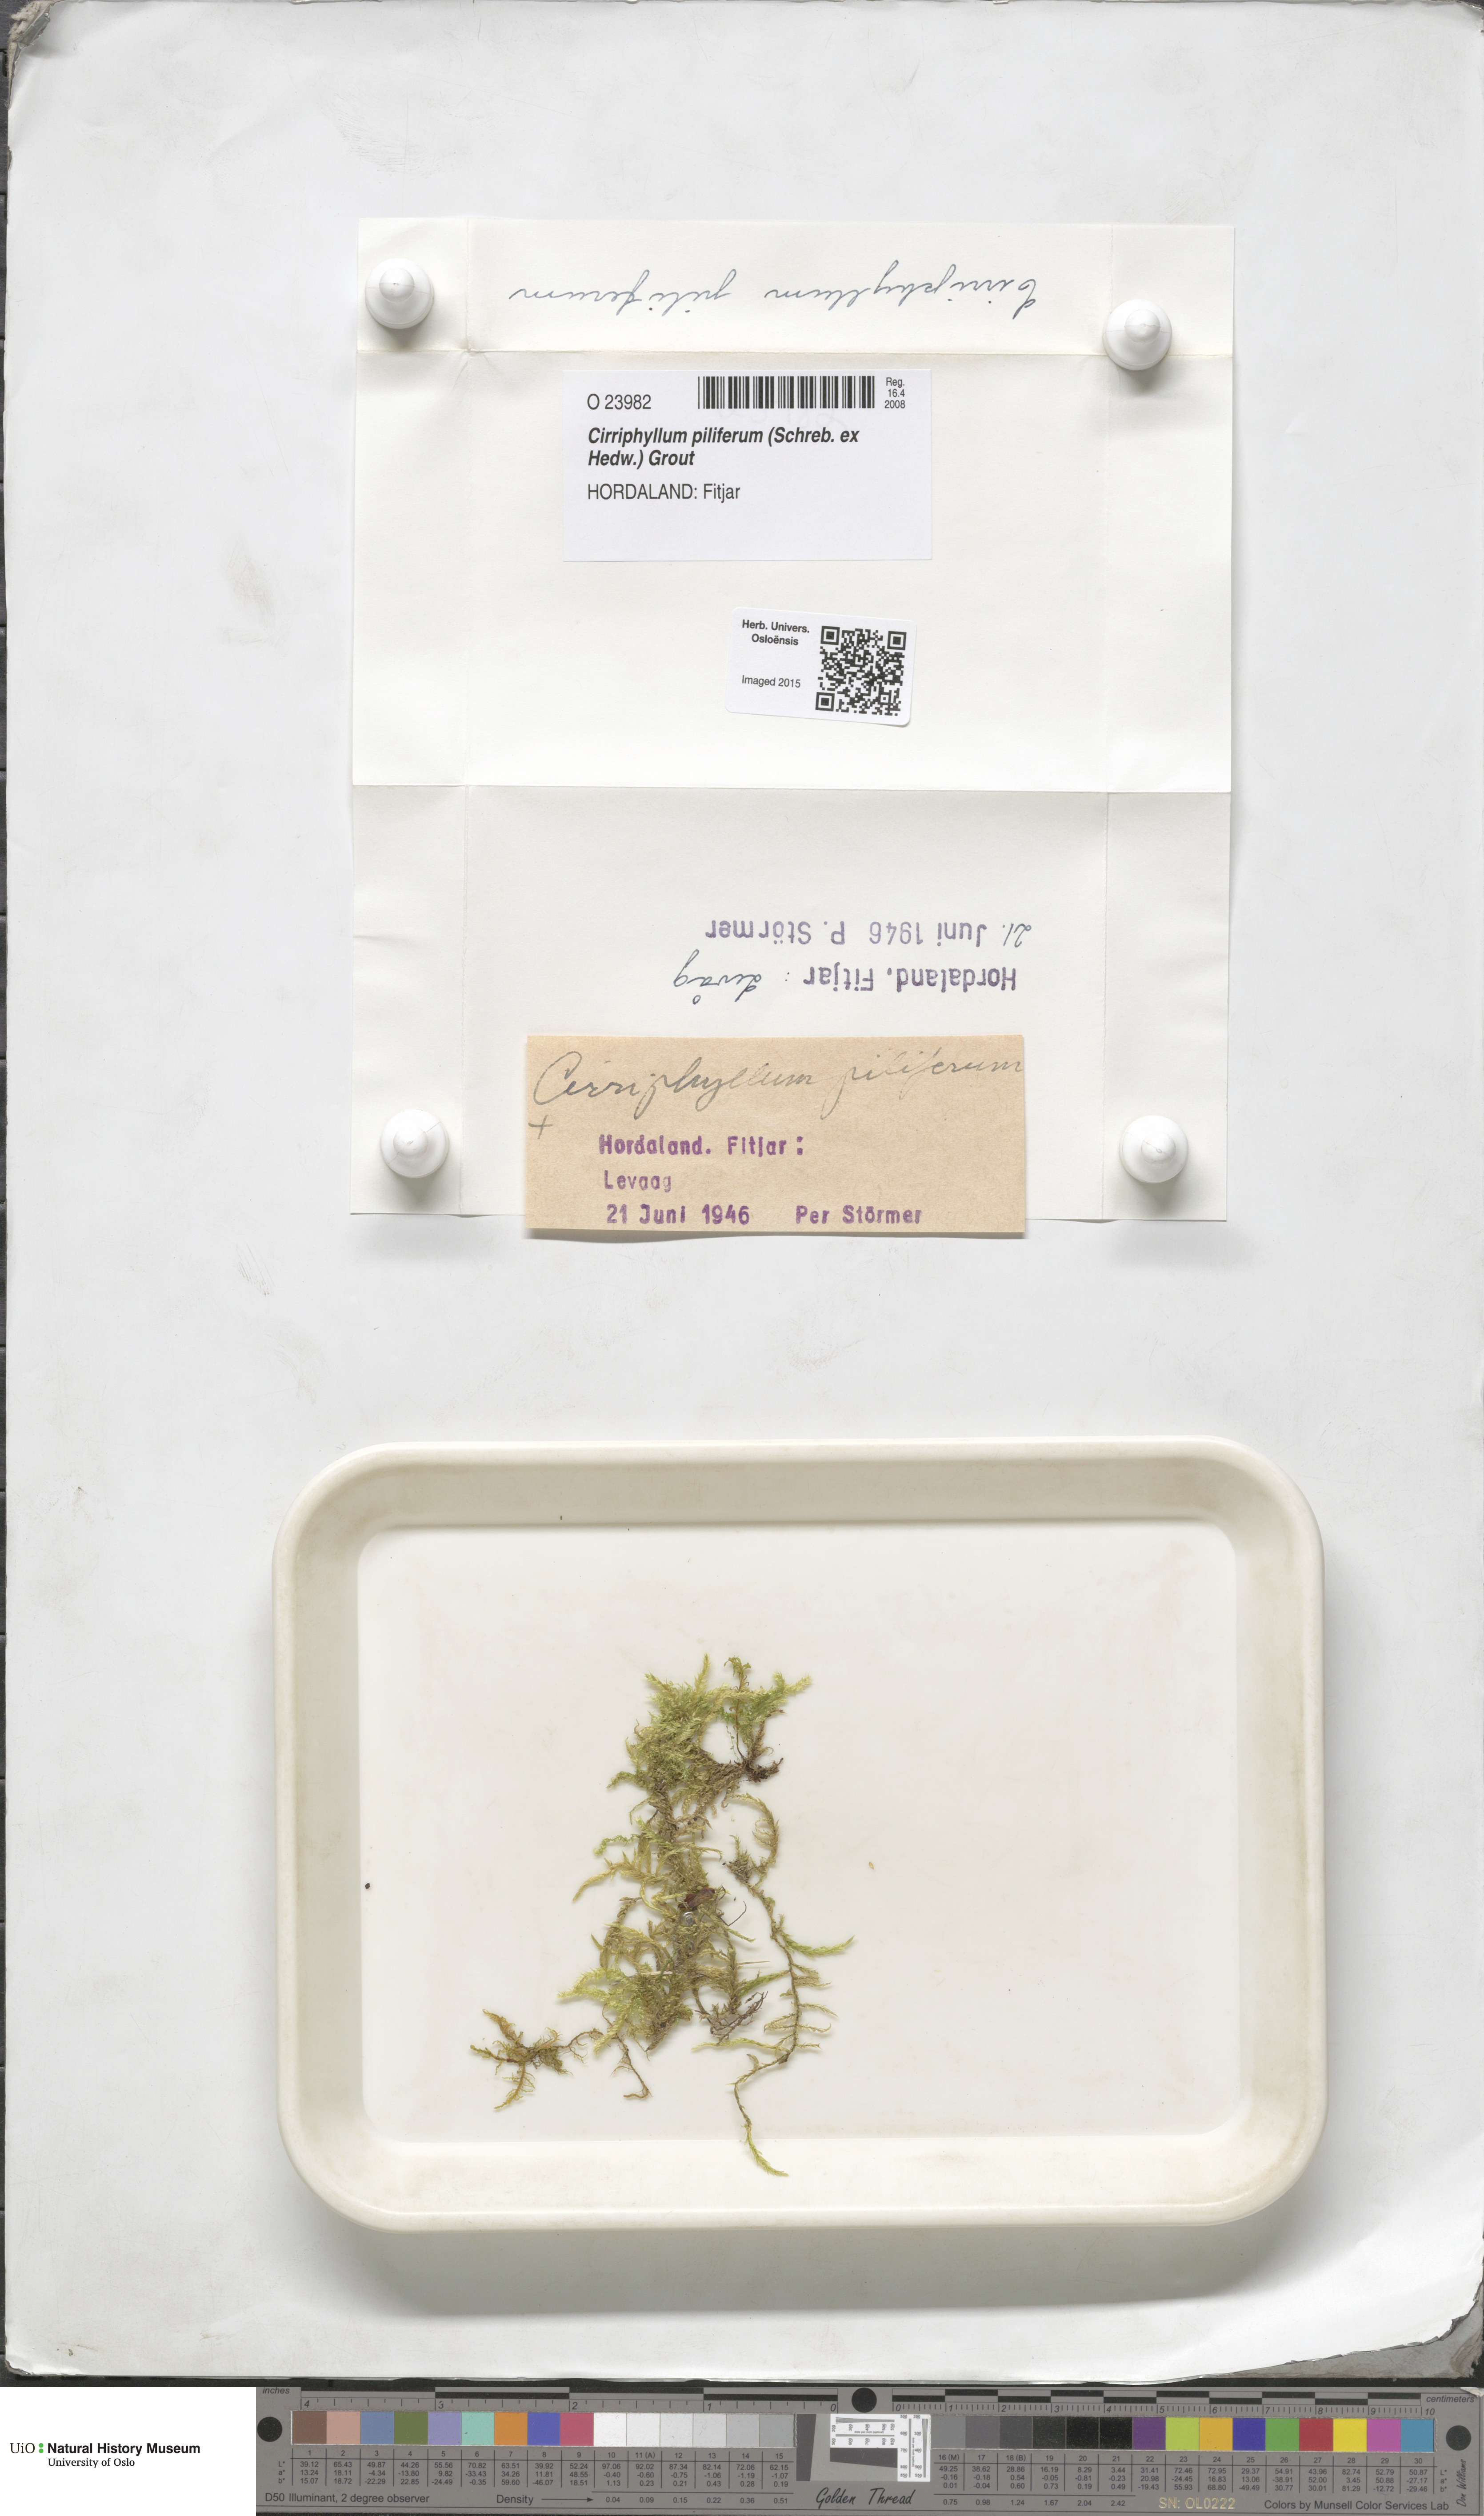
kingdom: Plantae
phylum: Bryophyta
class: Bryopsida
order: Hypnales
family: Brachytheciaceae
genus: Cirriphyllum
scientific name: Cirriphyllum piliferum
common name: Hair-pointed moss
